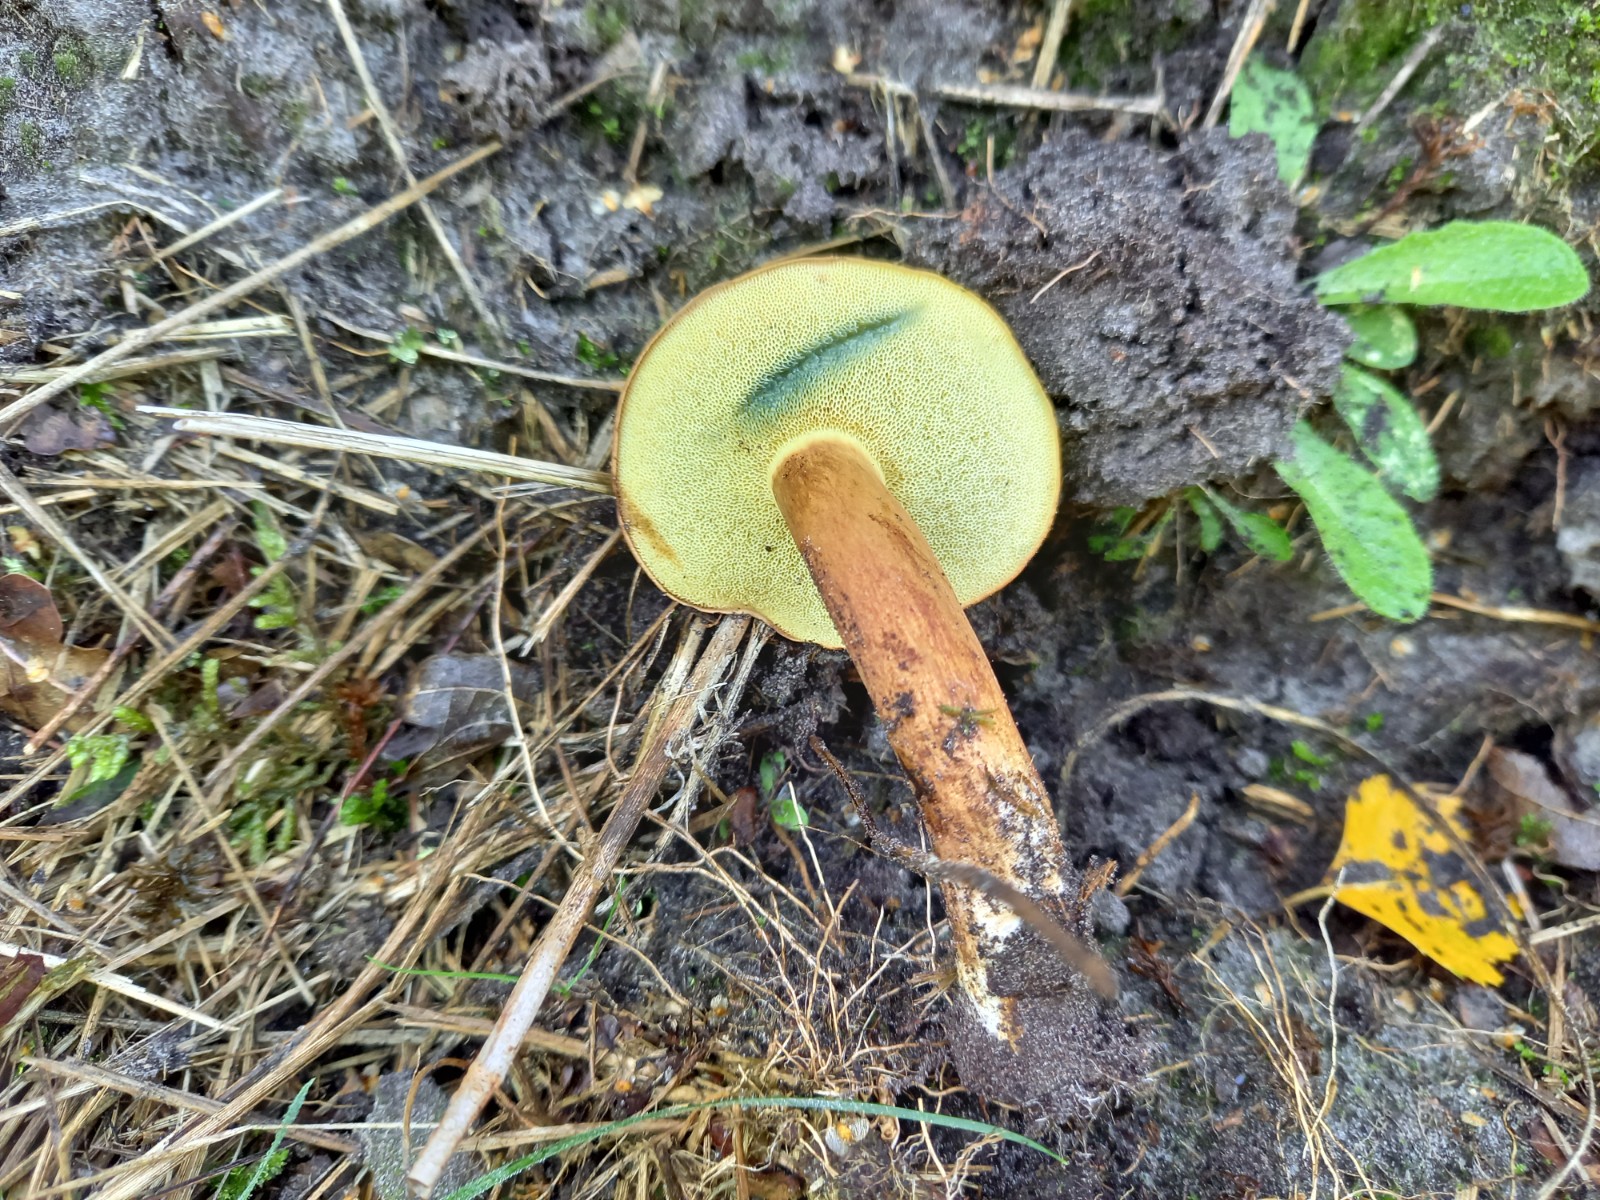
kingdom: Fungi
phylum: Basidiomycota
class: Agaricomycetes
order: Boletales
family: Boletaceae
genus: Imleria
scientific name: Imleria badia
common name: brunstokket rørhat
